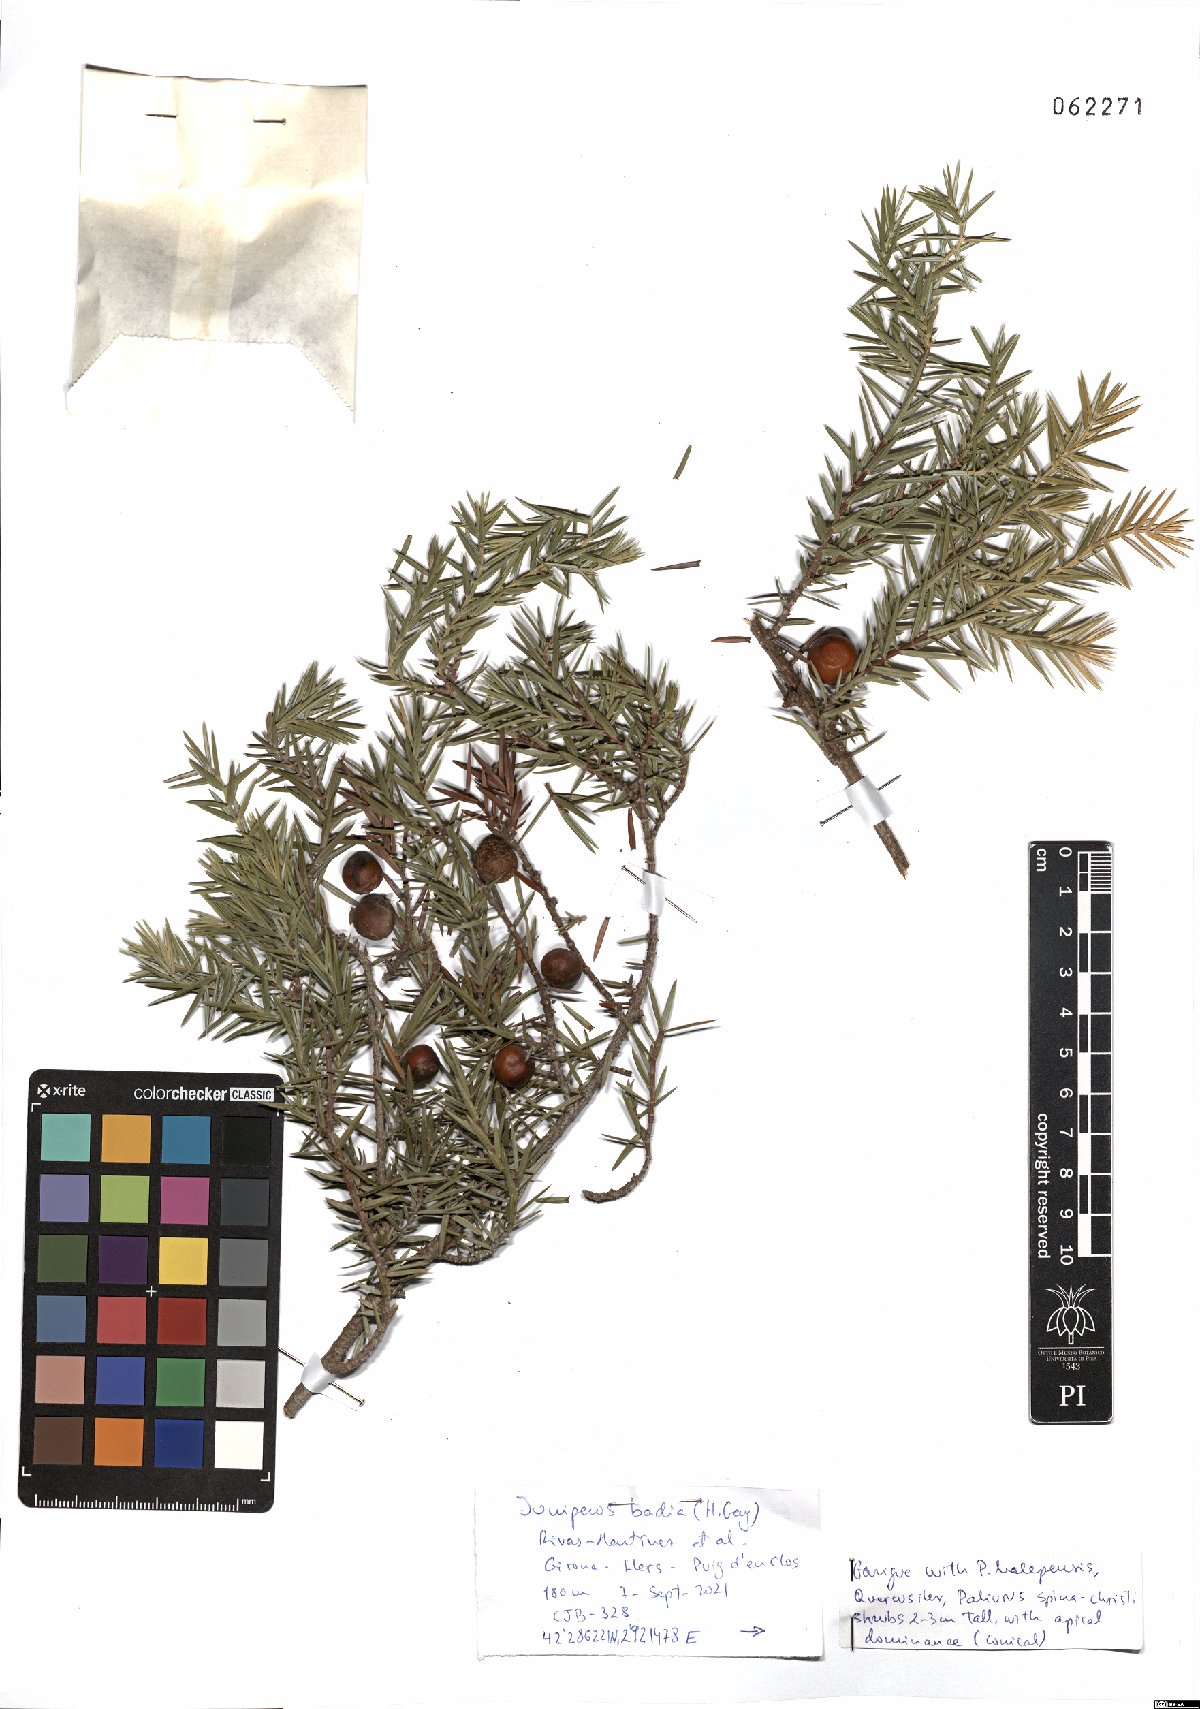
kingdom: Plantae
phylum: Tracheophyta
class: Pinopsida
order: Pinales
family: Cupressaceae
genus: Juniperus
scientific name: Juniperus oxycedrus
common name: Prickly juniper
